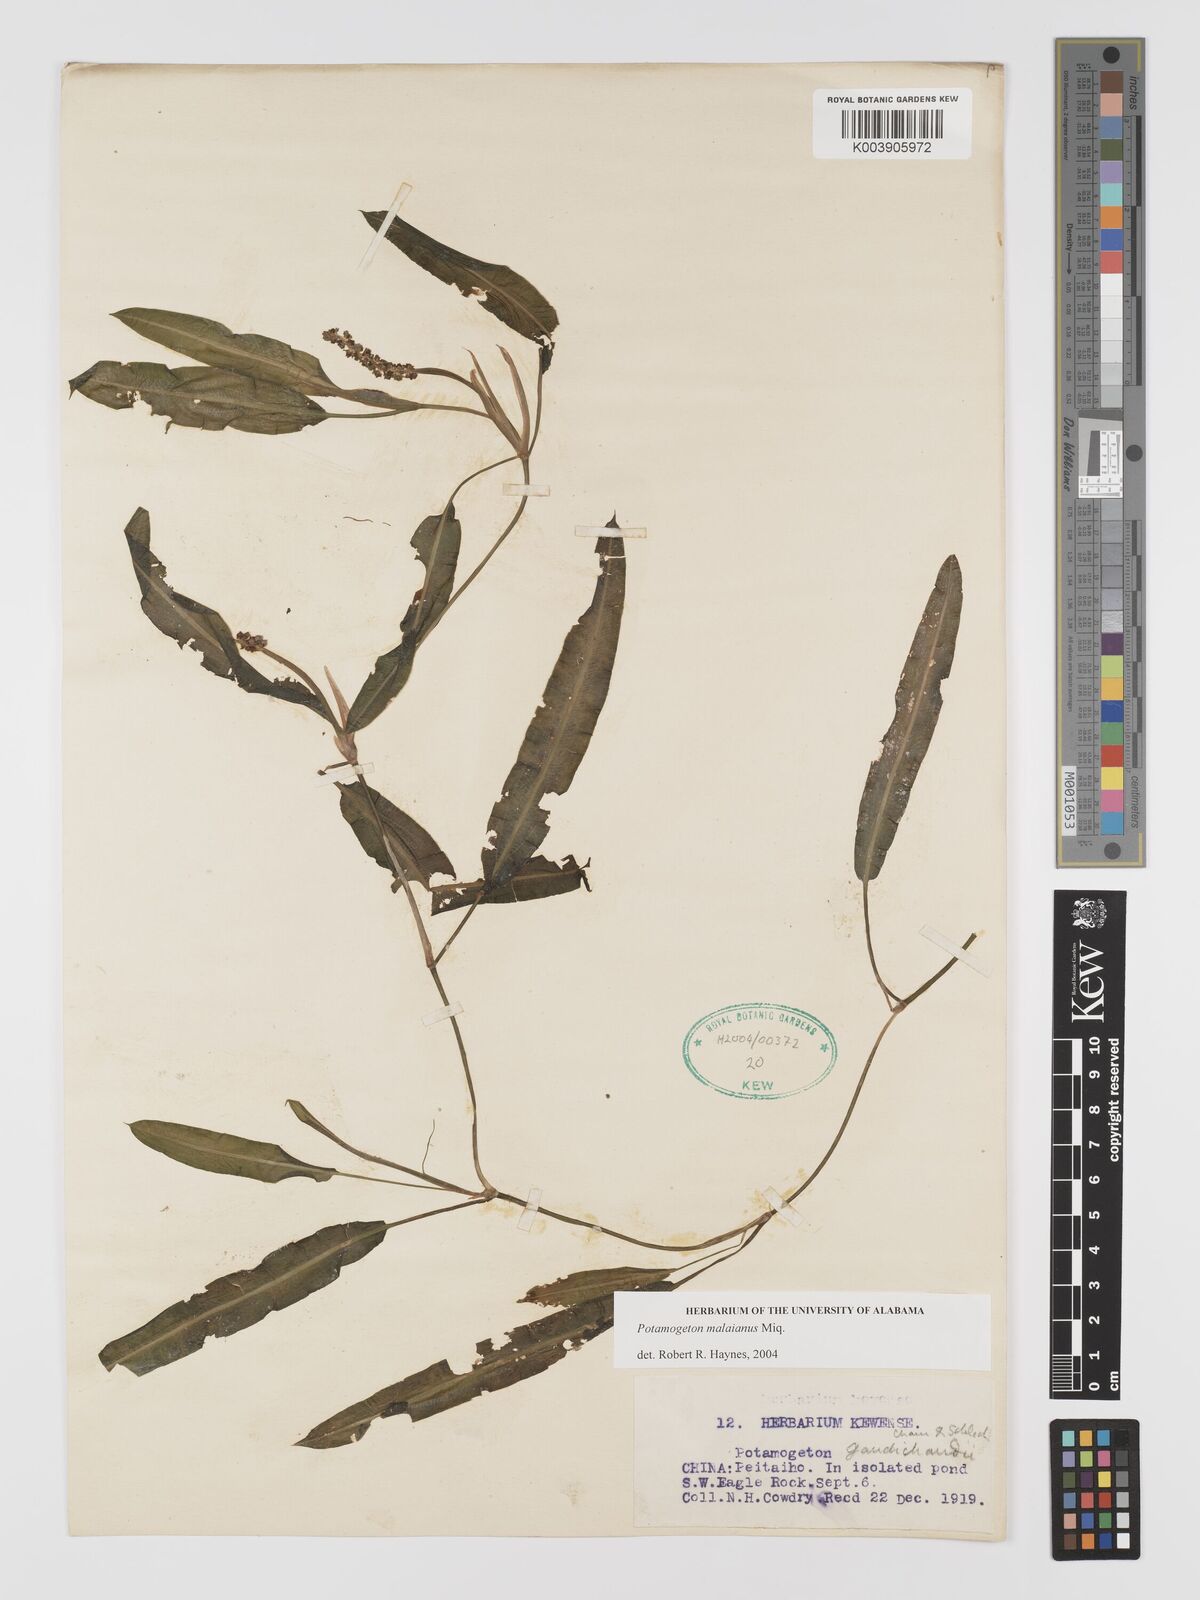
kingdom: Plantae
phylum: Tracheophyta
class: Liliopsida
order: Alismatales
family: Potamogetonaceae
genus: Potamogeton
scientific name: Potamogeton wrightii
